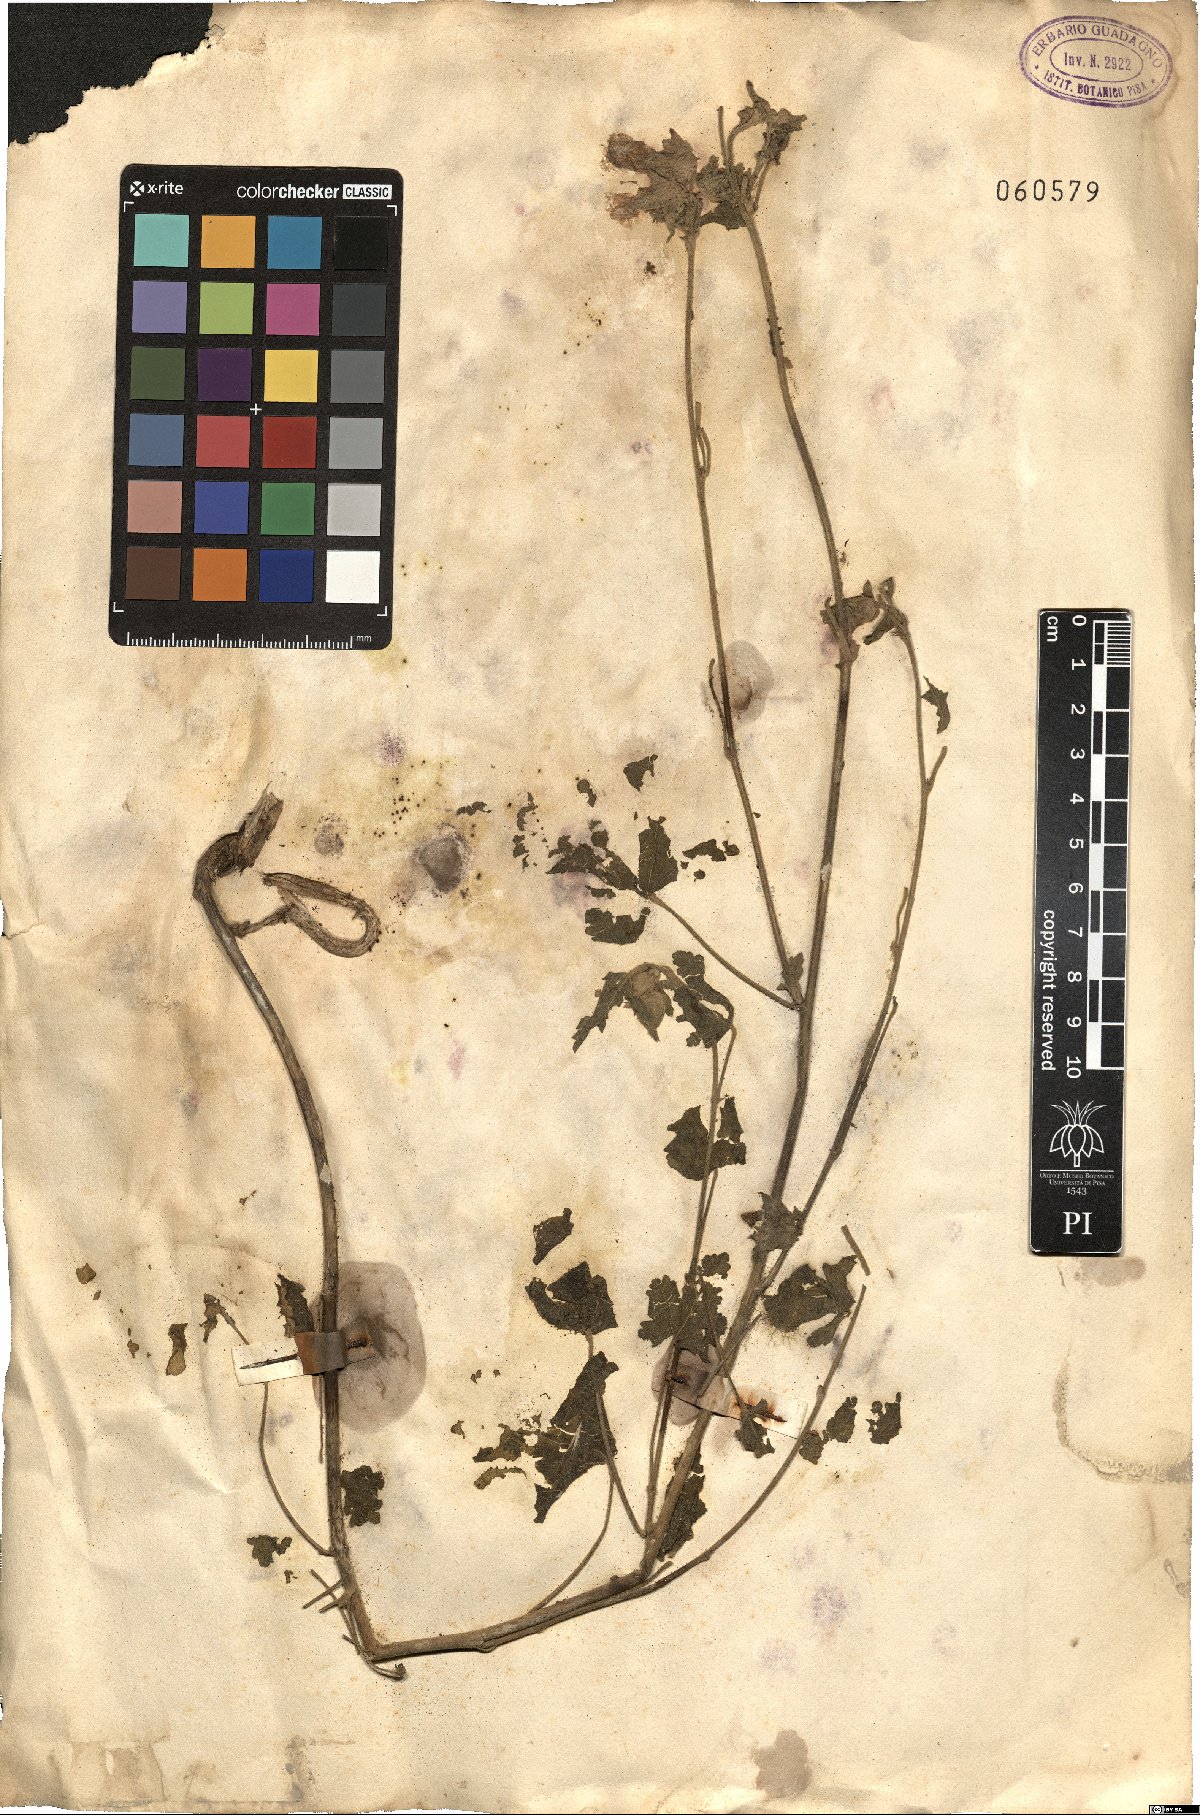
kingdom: Plantae
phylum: Tracheophyta
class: Magnoliopsida
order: Malvales
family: Malvaceae
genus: Malva
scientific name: Malva
